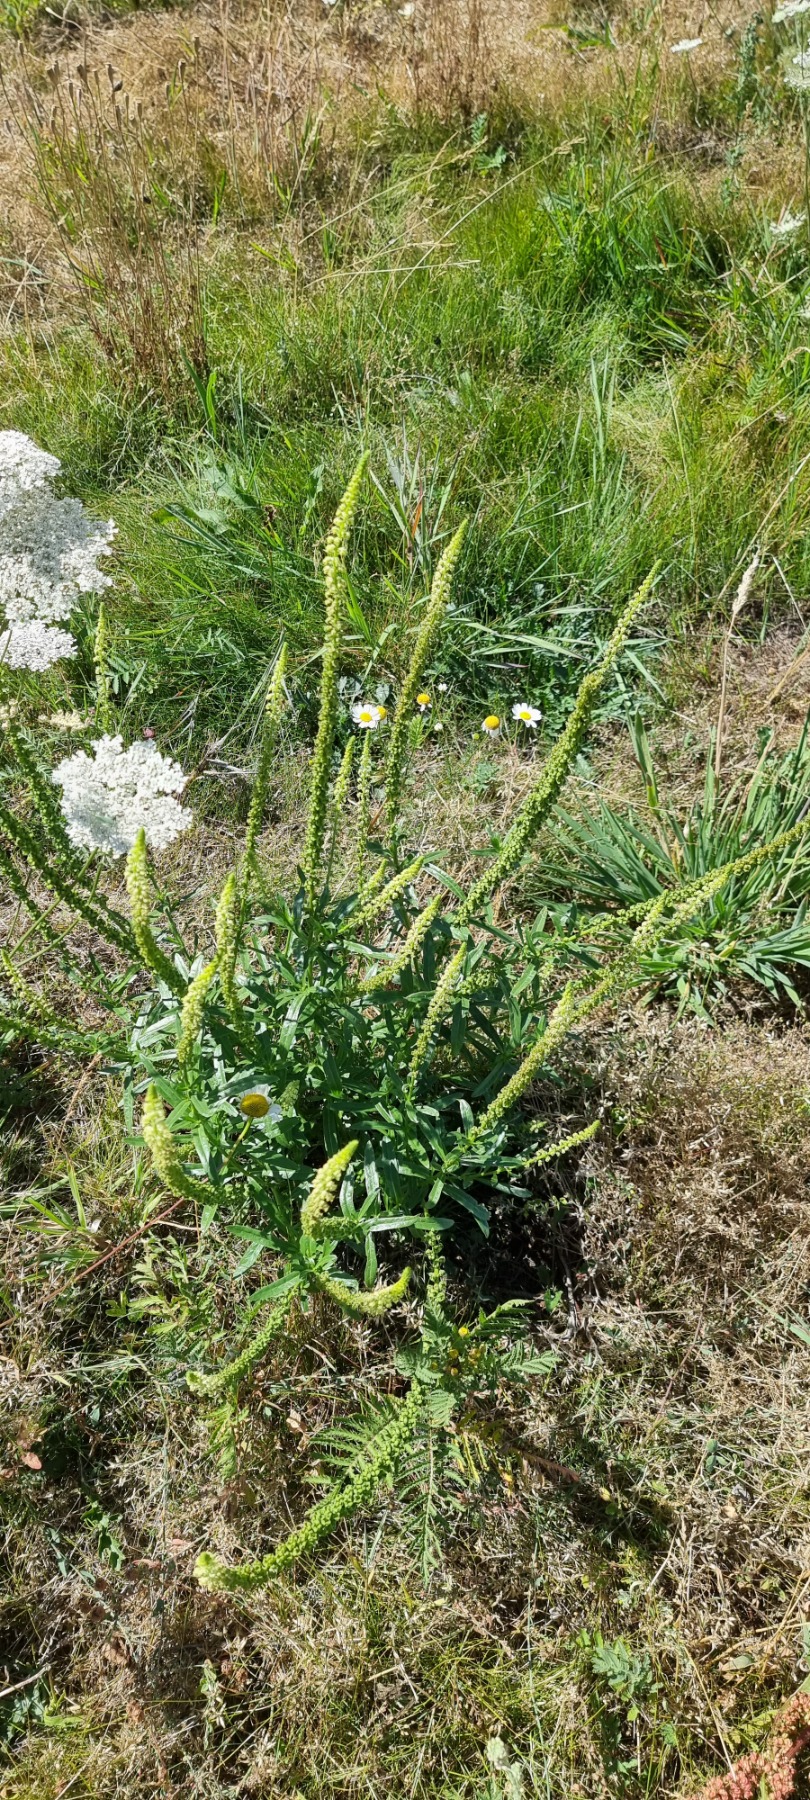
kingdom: Plantae
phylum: Tracheophyta
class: Magnoliopsida
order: Brassicales
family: Resedaceae
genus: Reseda
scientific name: Reseda luteola
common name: Farve-reseda
